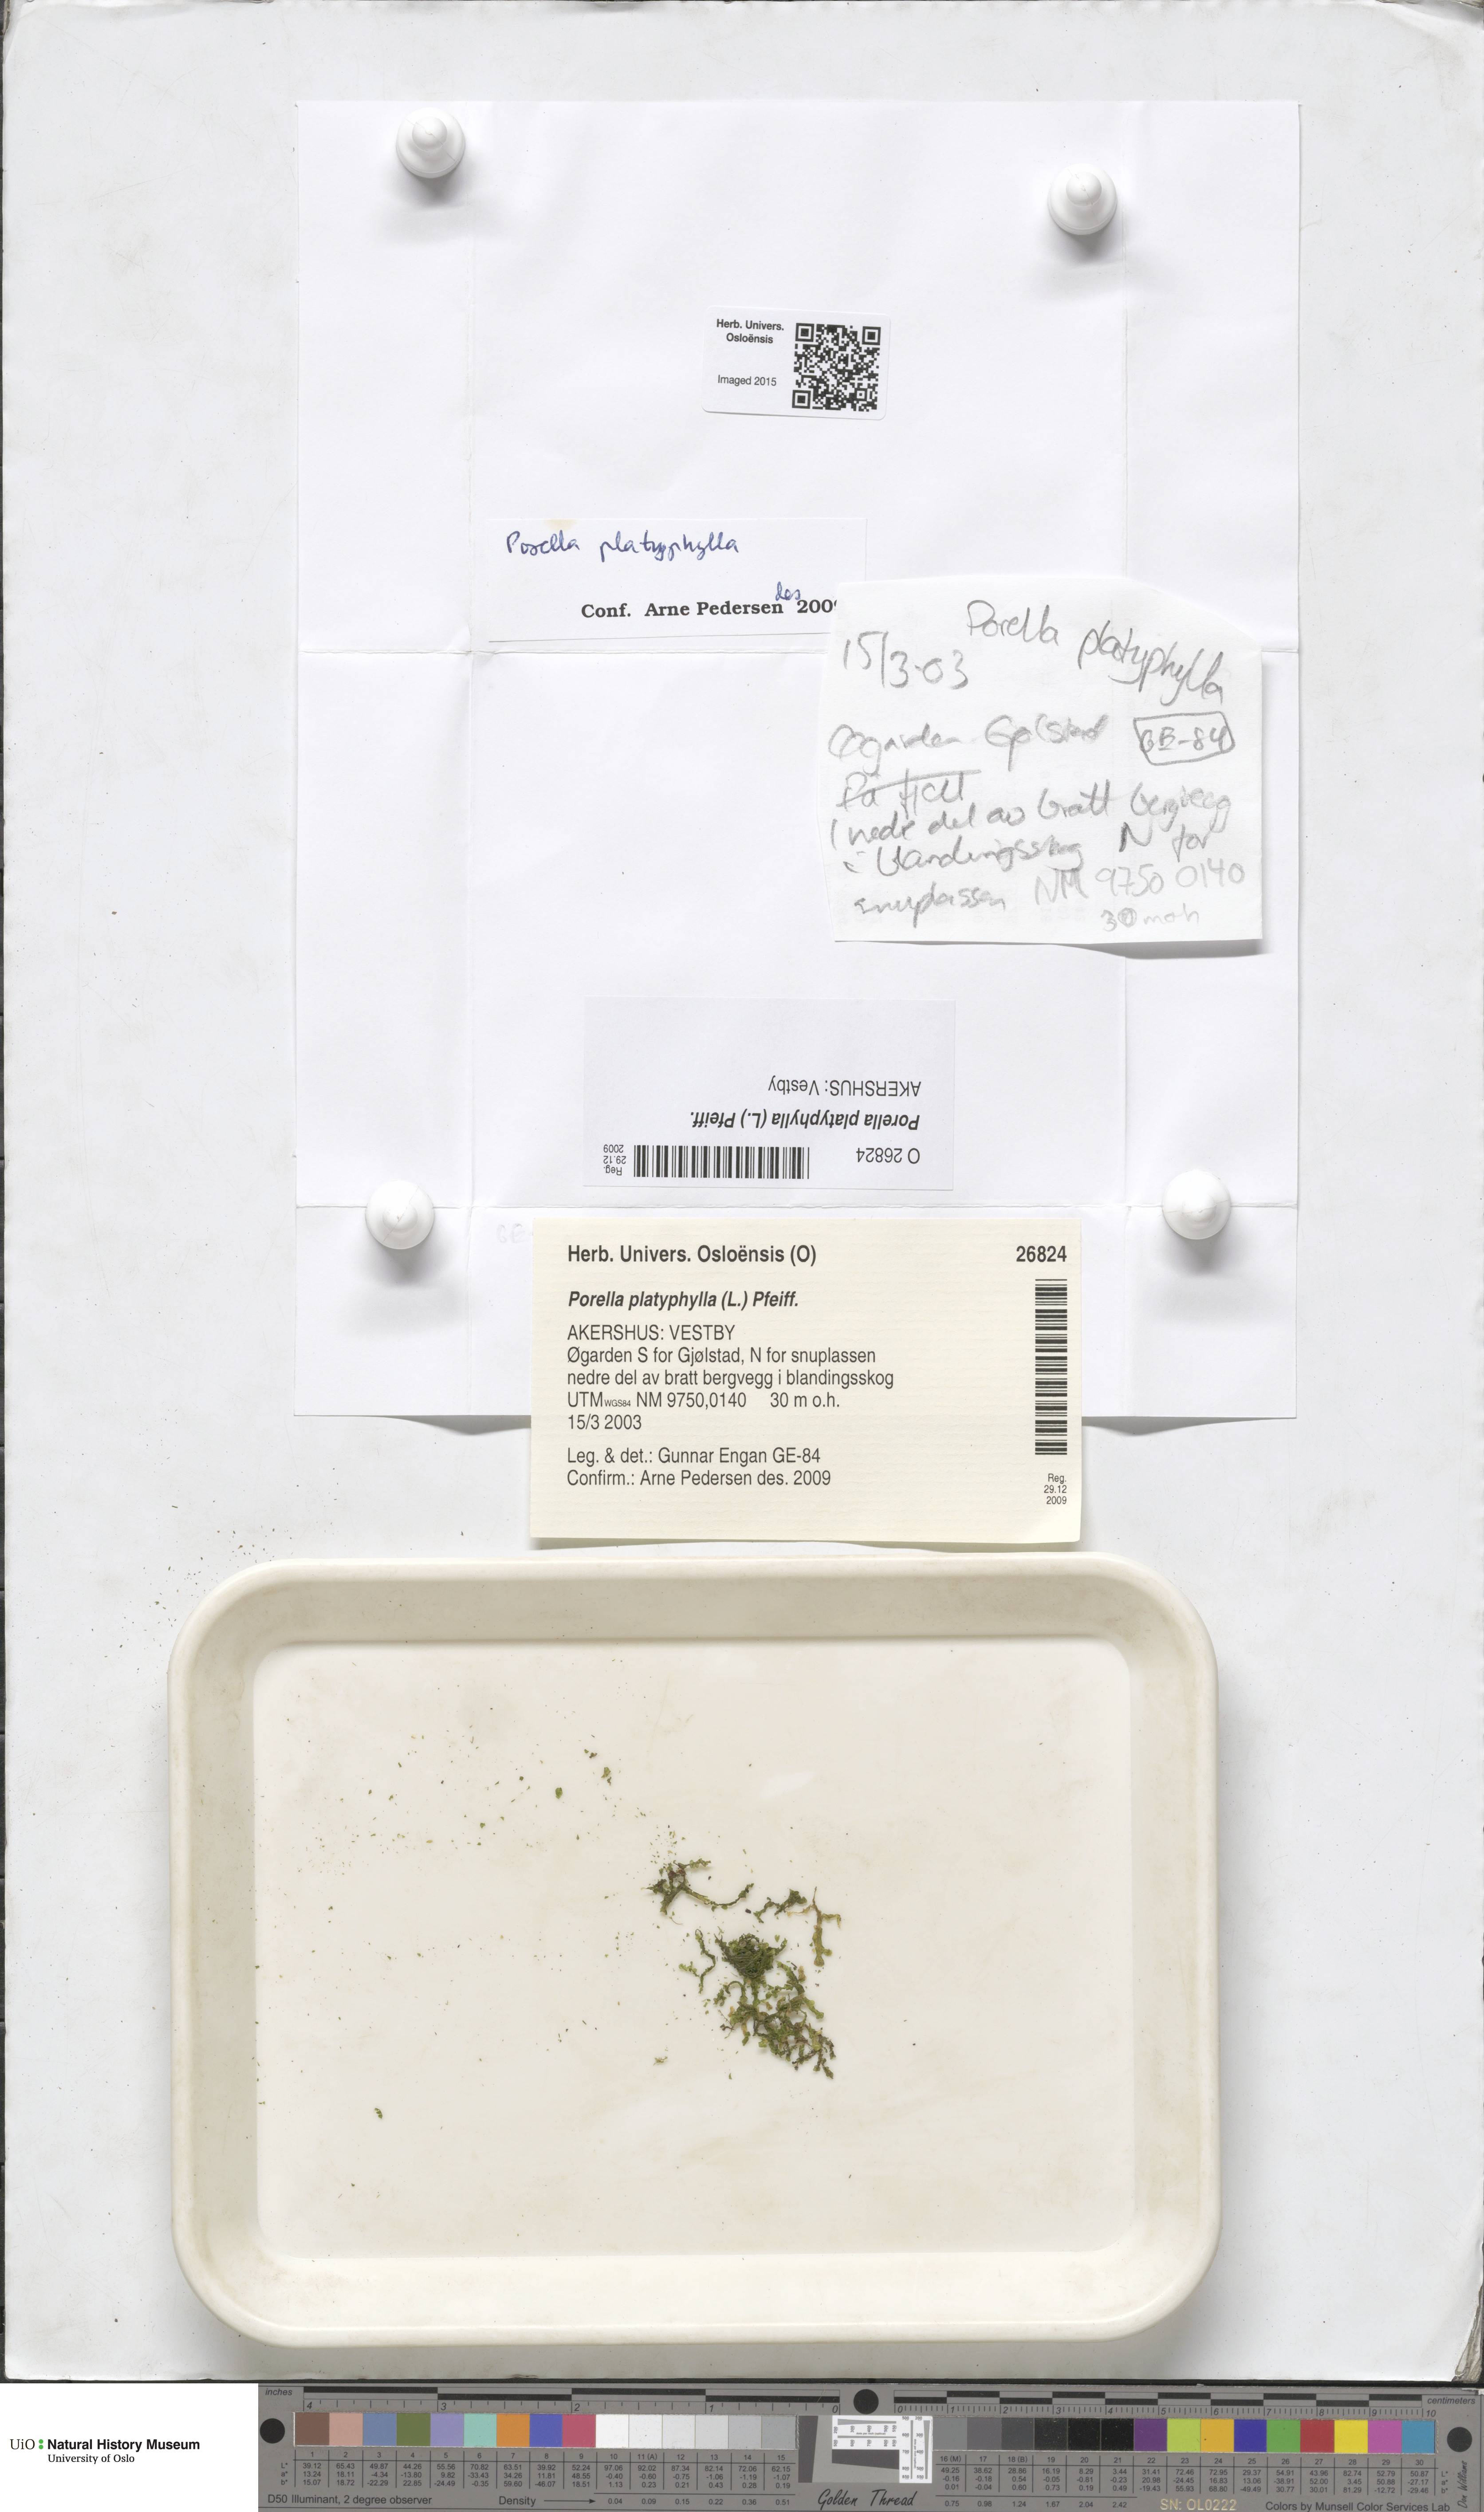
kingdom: Plantae
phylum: Marchantiophyta
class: Jungermanniopsida
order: Porellales
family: Porellaceae
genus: Porella
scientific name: Porella platyphylla
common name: Wall scalewort
